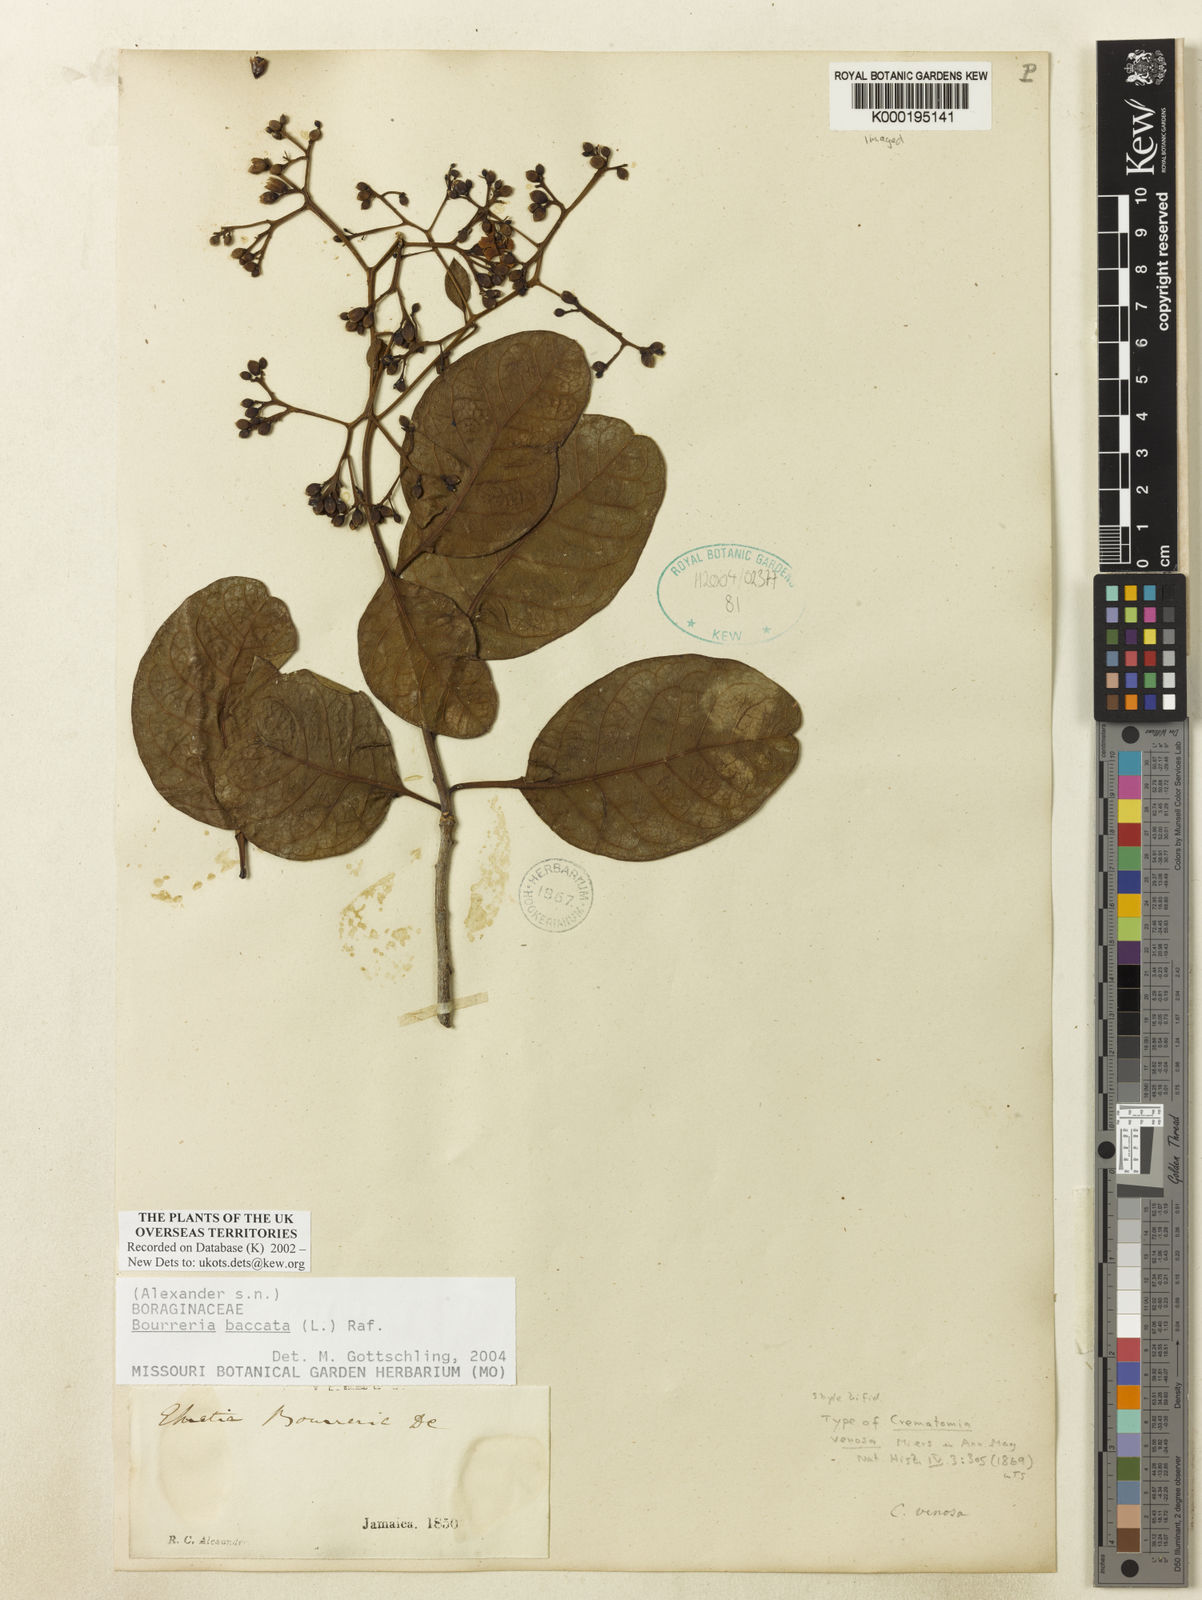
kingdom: Plantae
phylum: Tracheophyta
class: Magnoliopsida
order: Boraginales
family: Ehretiaceae
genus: Bourreria
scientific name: Bourreria succulenta
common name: Cherry
